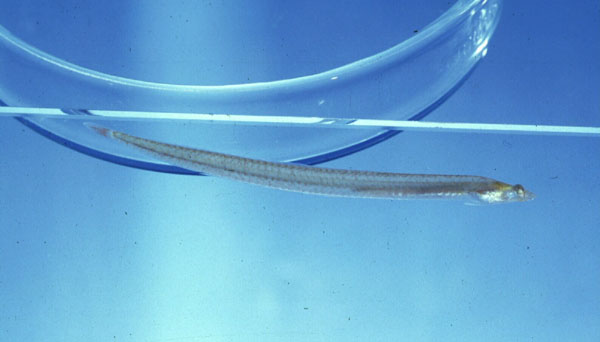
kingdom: Animalia
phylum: Chordata
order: Perciformes
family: Creediidae
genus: Apodocreedia
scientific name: Apodocreedia vanderhorsti
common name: Longfin burrower
